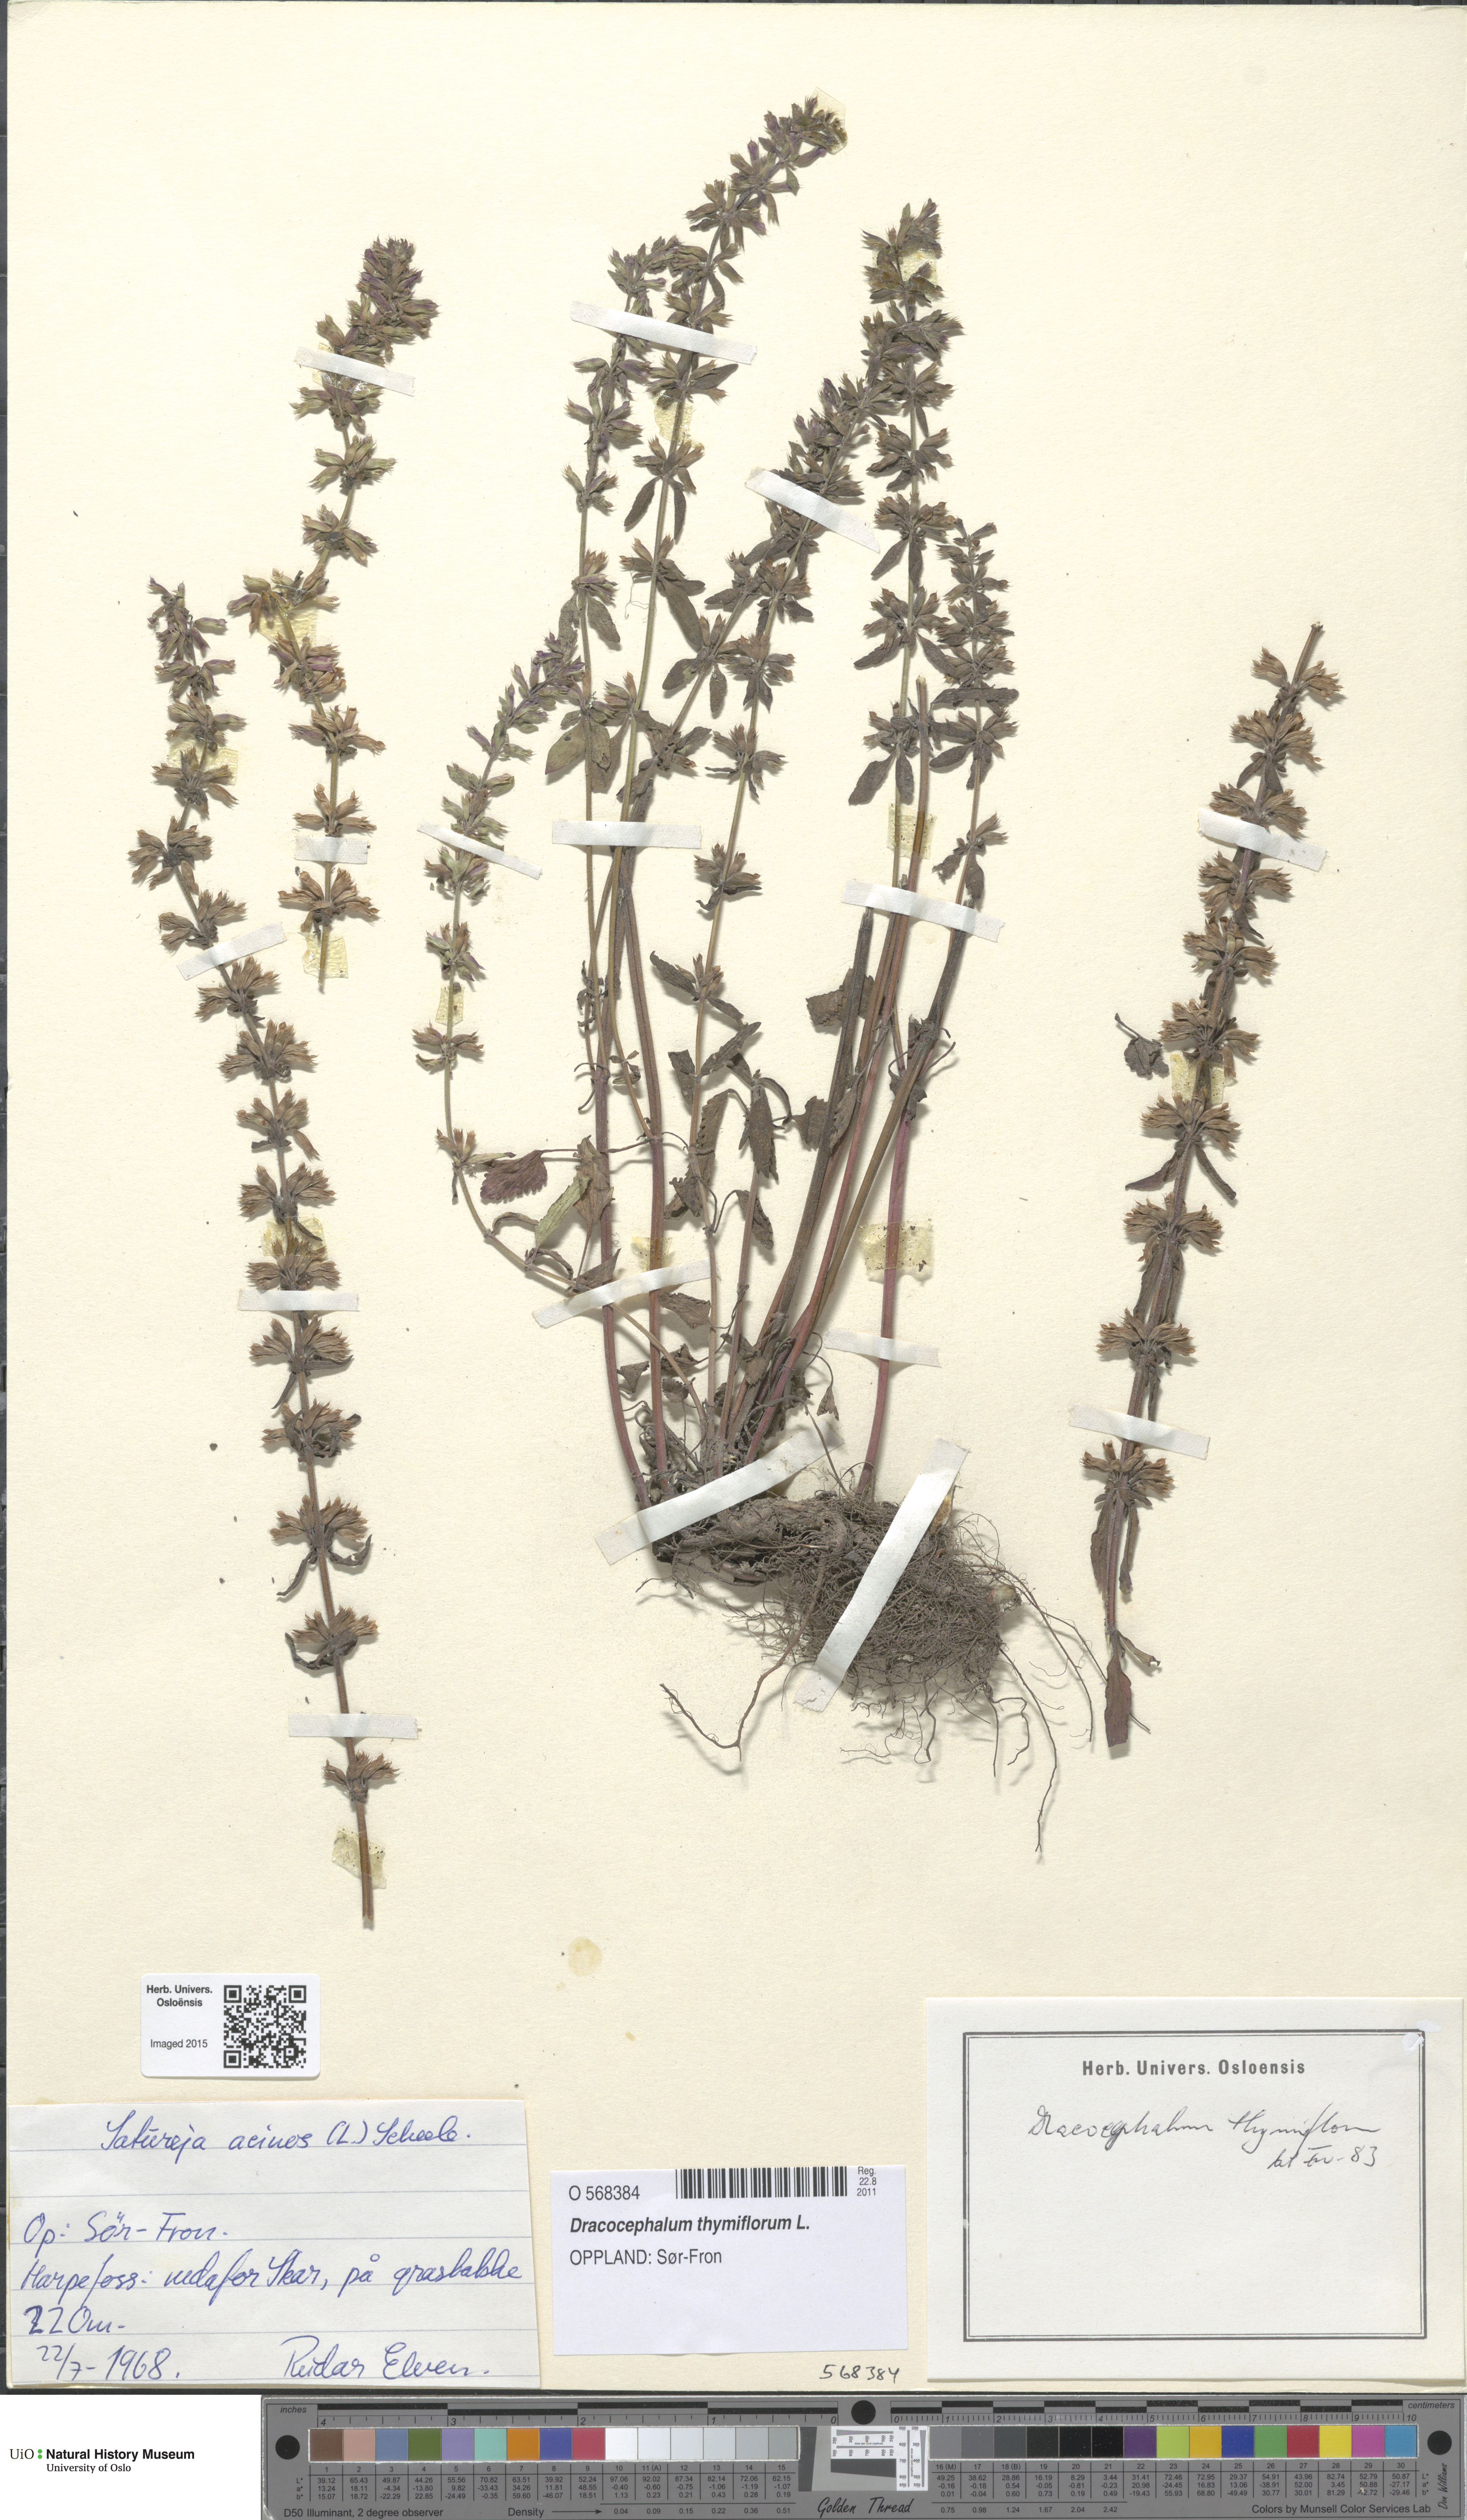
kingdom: Plantae
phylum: Tracheophyta
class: Magnoliopsida
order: Lamiales
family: Lamiaceae
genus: Dracocephalum
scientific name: Dracocephalum thymiflorum
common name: Thymeleaf dragonhead
